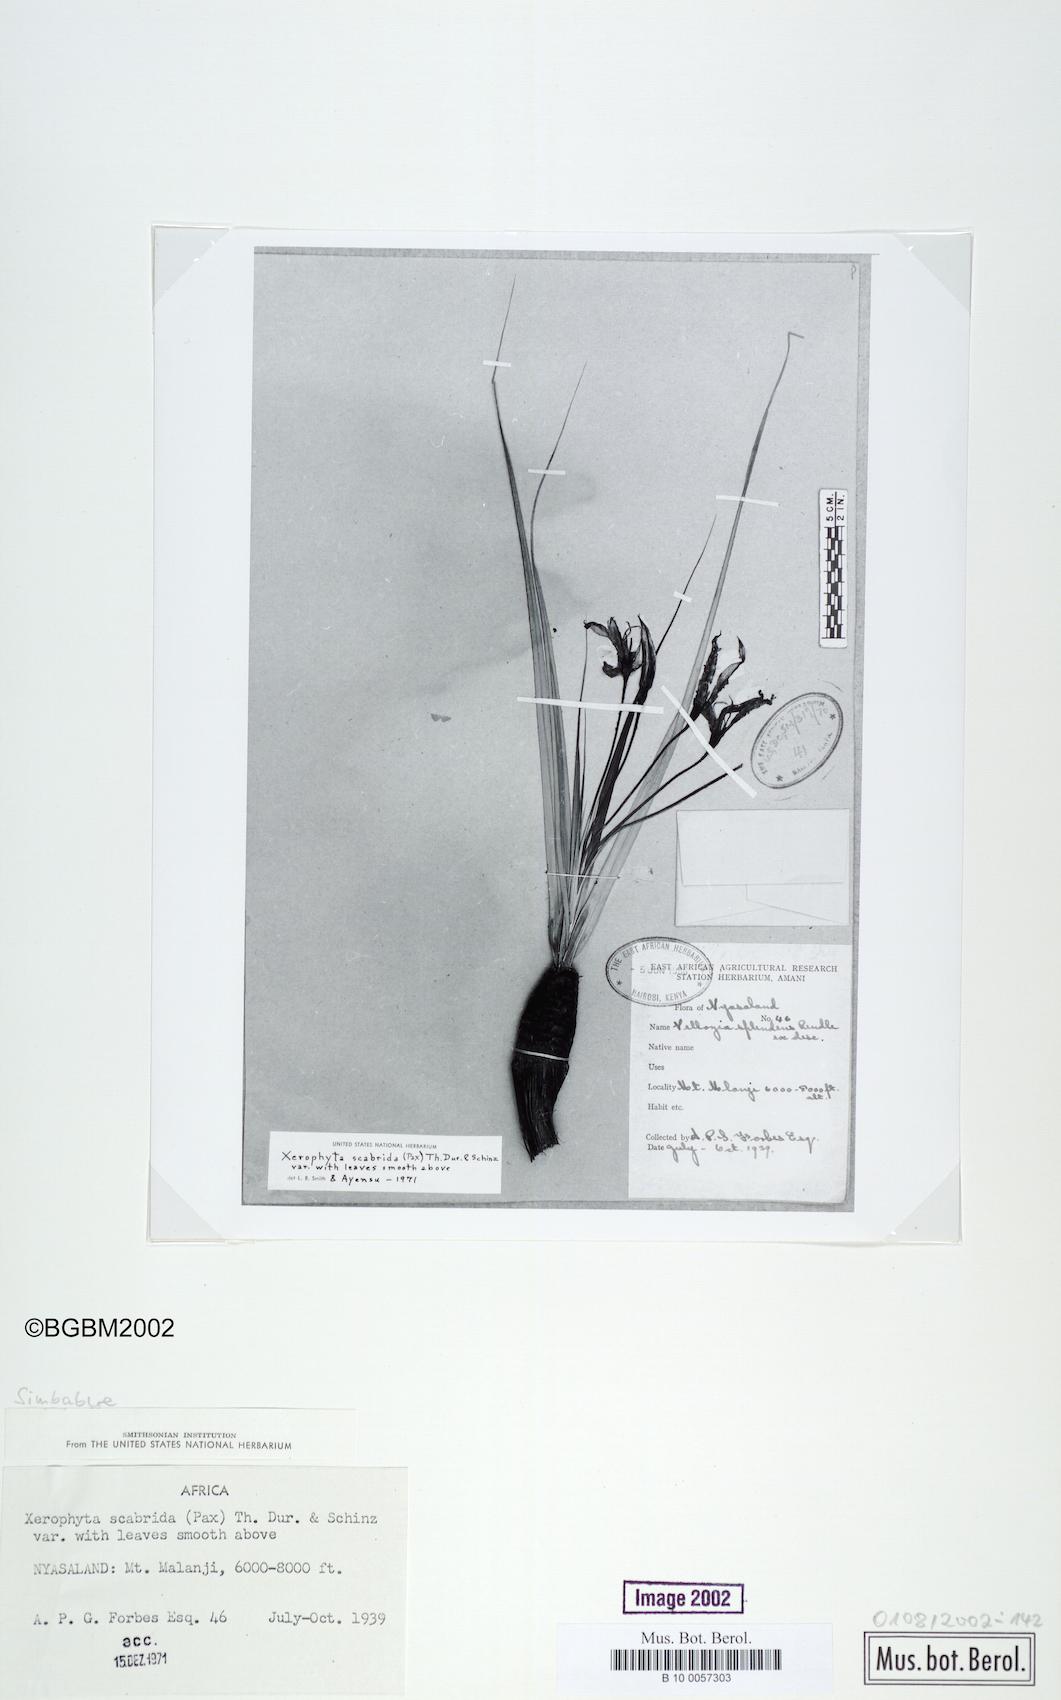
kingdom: Plantae
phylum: Tracheophyta
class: Liliopsida
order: Pandanales
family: Velloziaceae
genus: Xerophyta
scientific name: Xerophyta scabrida
